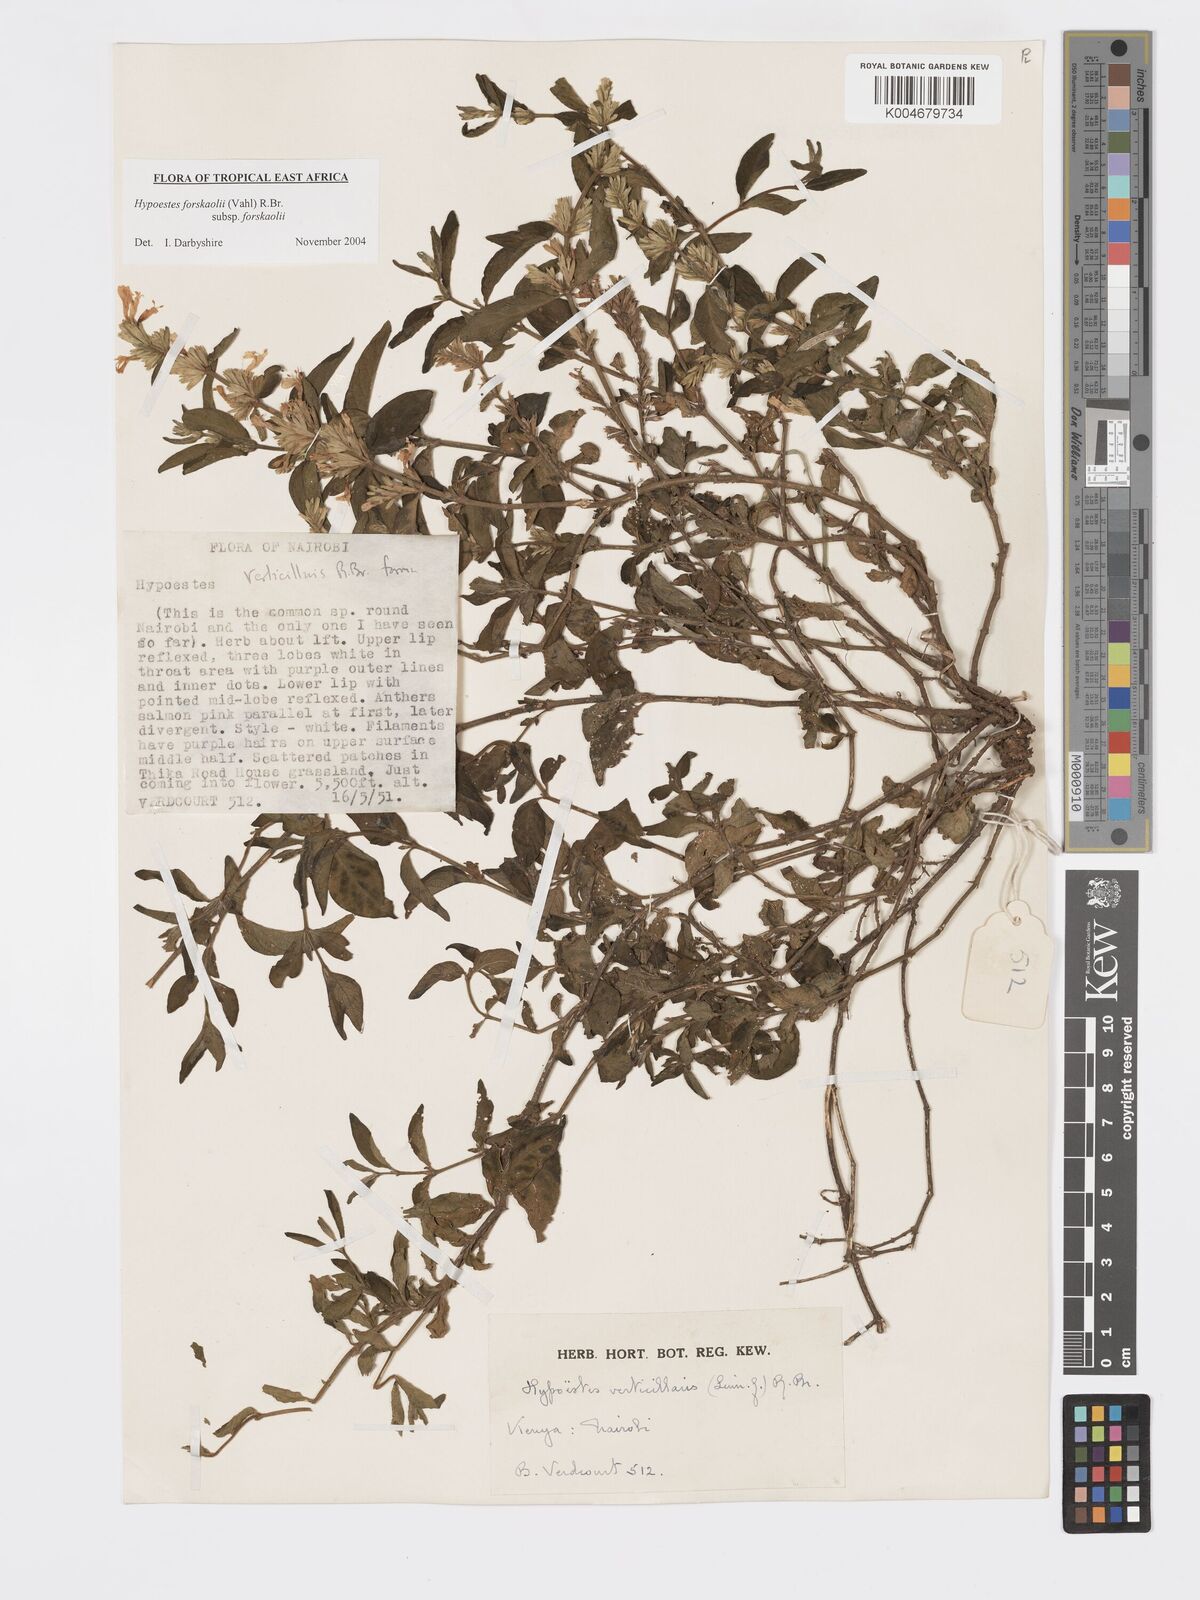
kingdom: Plantae
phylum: Tracheophyta
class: Magnoliopsida
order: Lamiales
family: Acanthaceae
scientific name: Acanthaceae
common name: Acanthaceae
